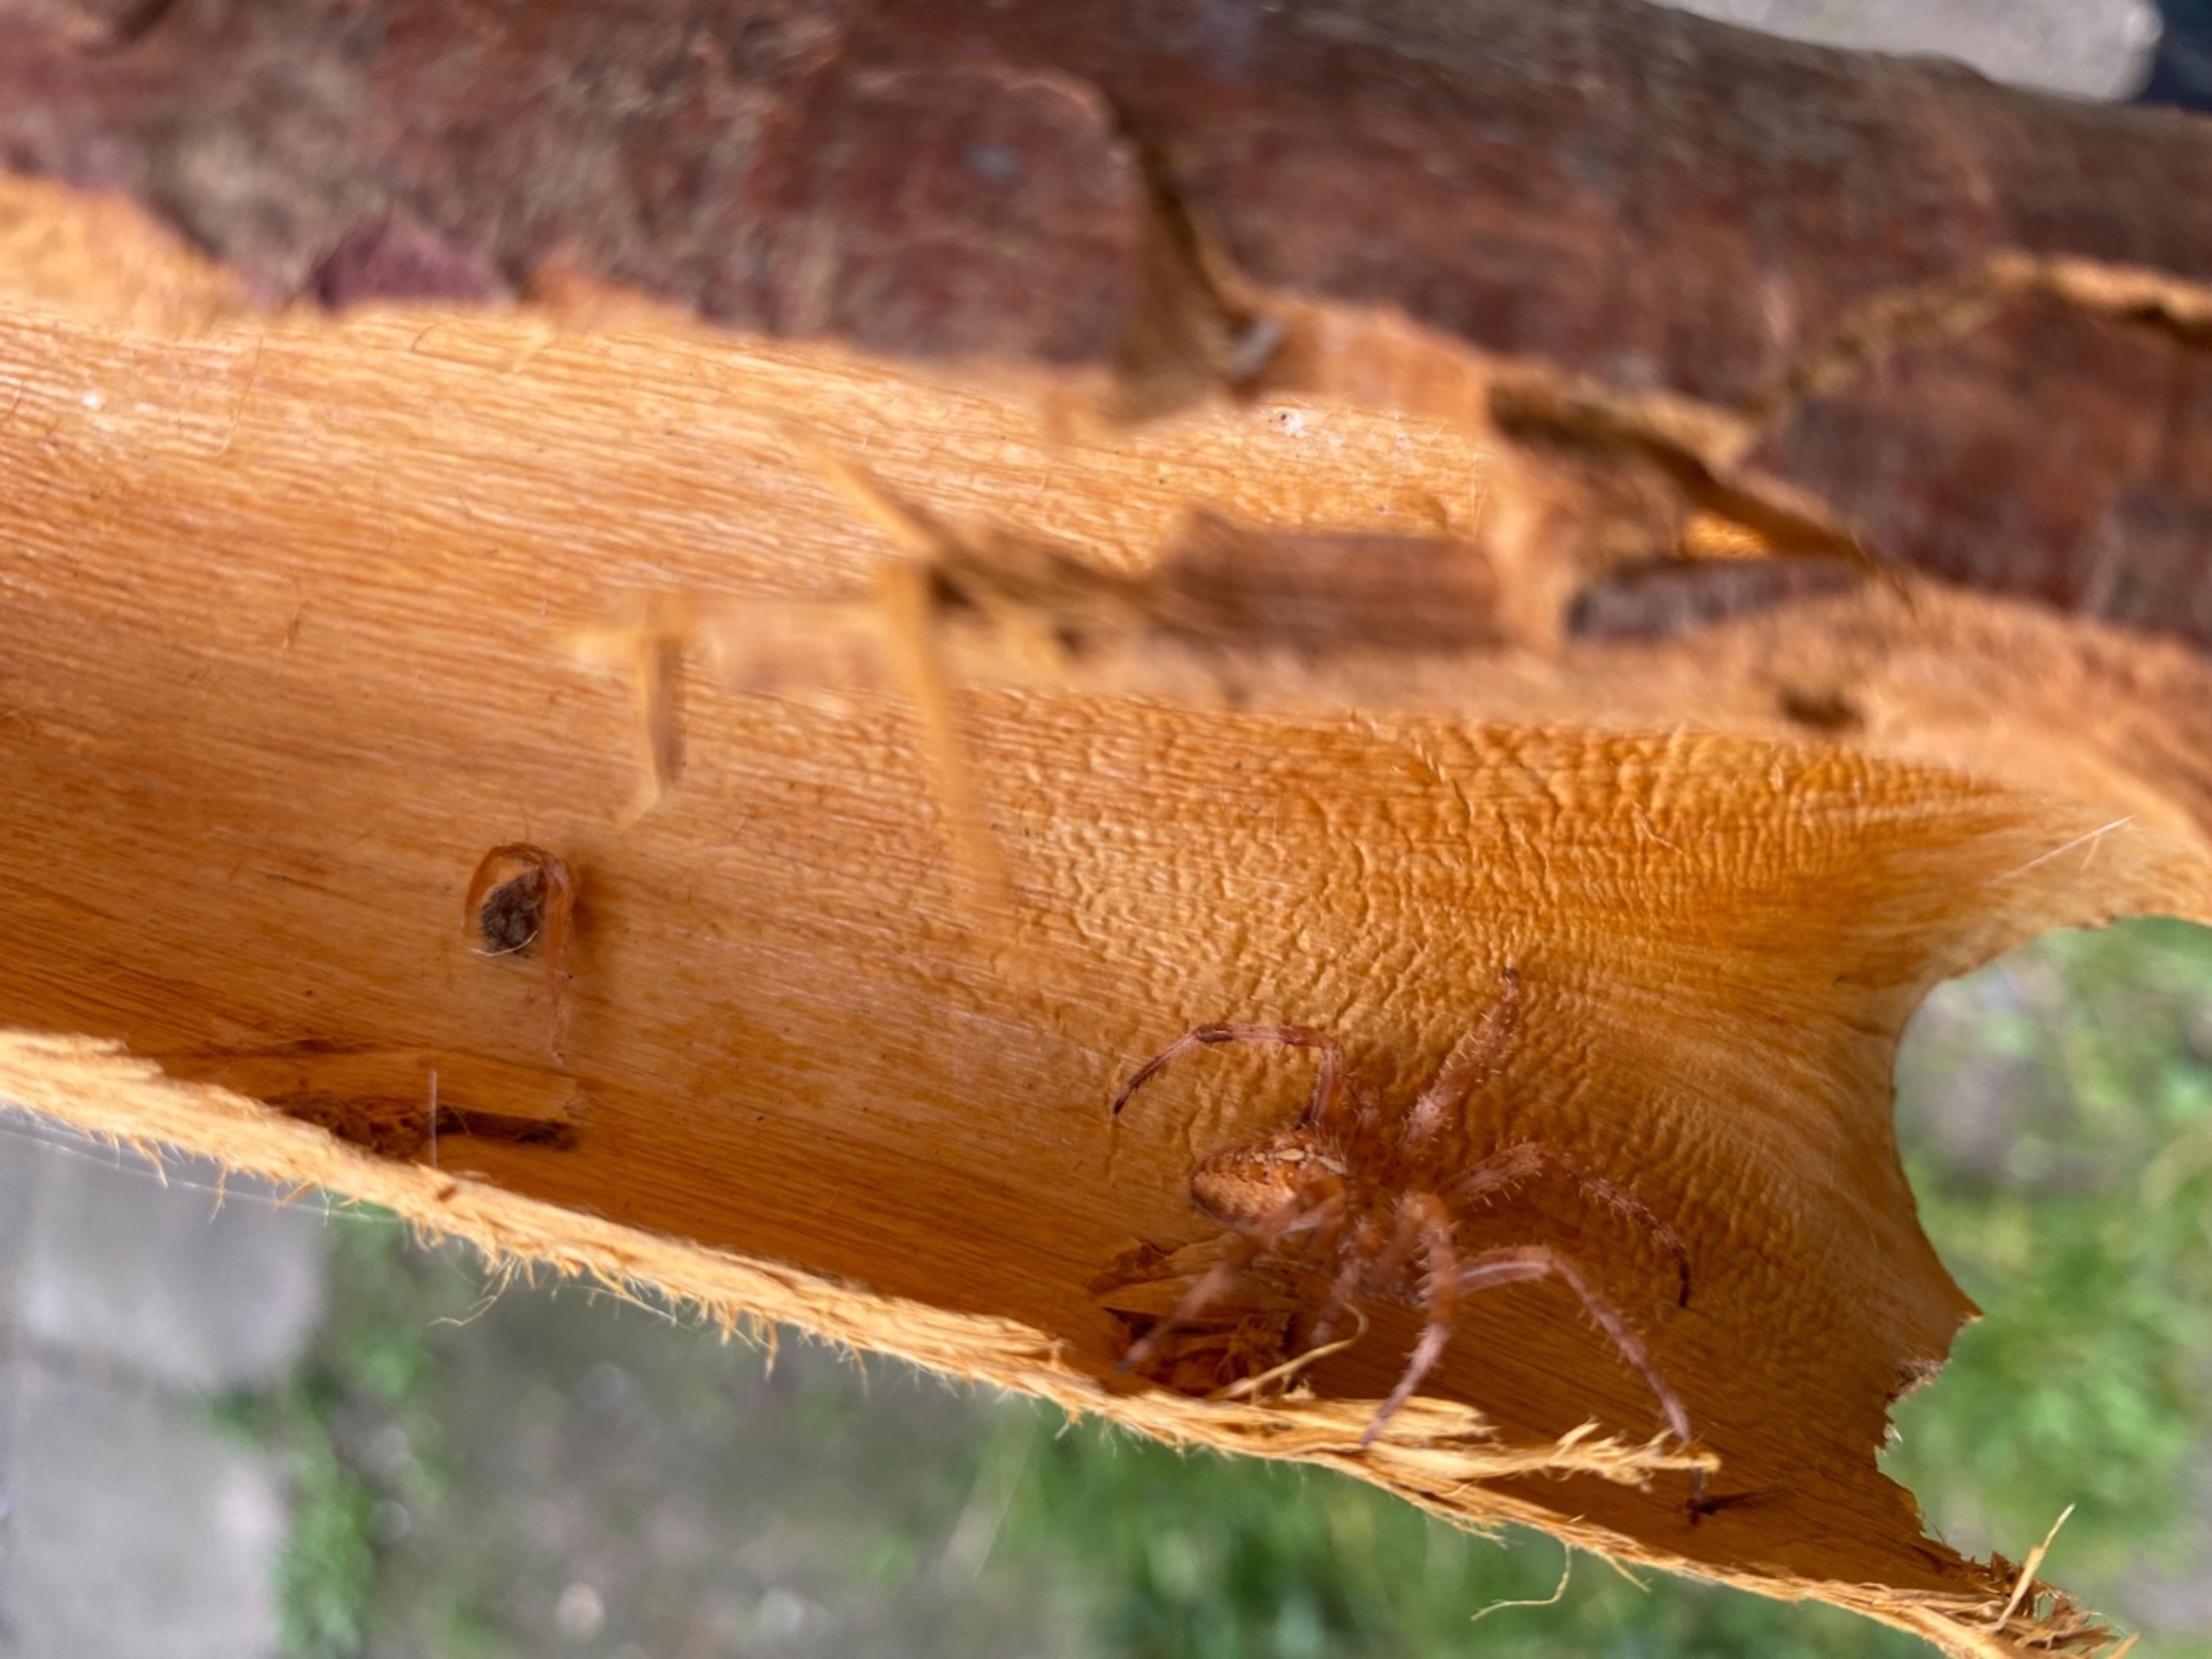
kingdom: Animalia
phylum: Arthropoda
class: Arachnida
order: Araneae
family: Araneidae
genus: Araneus
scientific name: Araneus diadematus
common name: Korsedderkop
